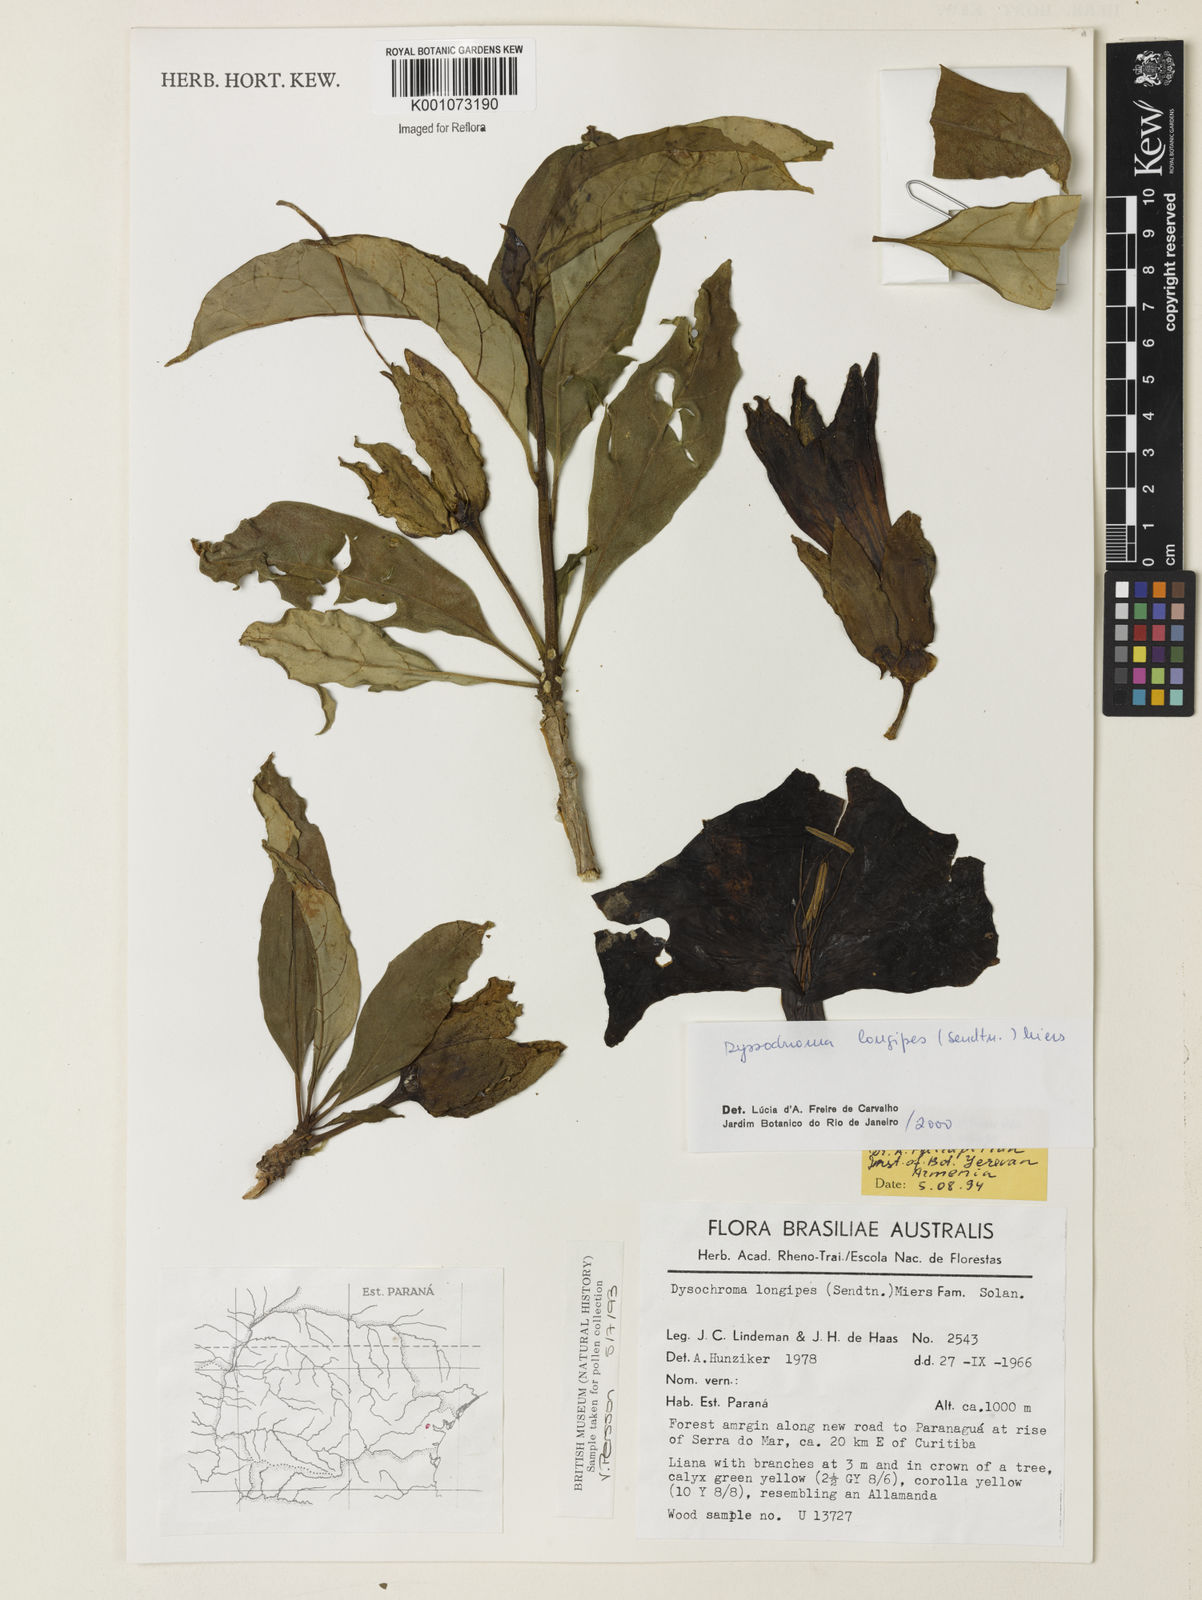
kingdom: Plantae
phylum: Tracheophyta
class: Magnoliopsida
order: Solanales
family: Solanaceae
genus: Dyssochroma
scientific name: Dyssochroma longipes
